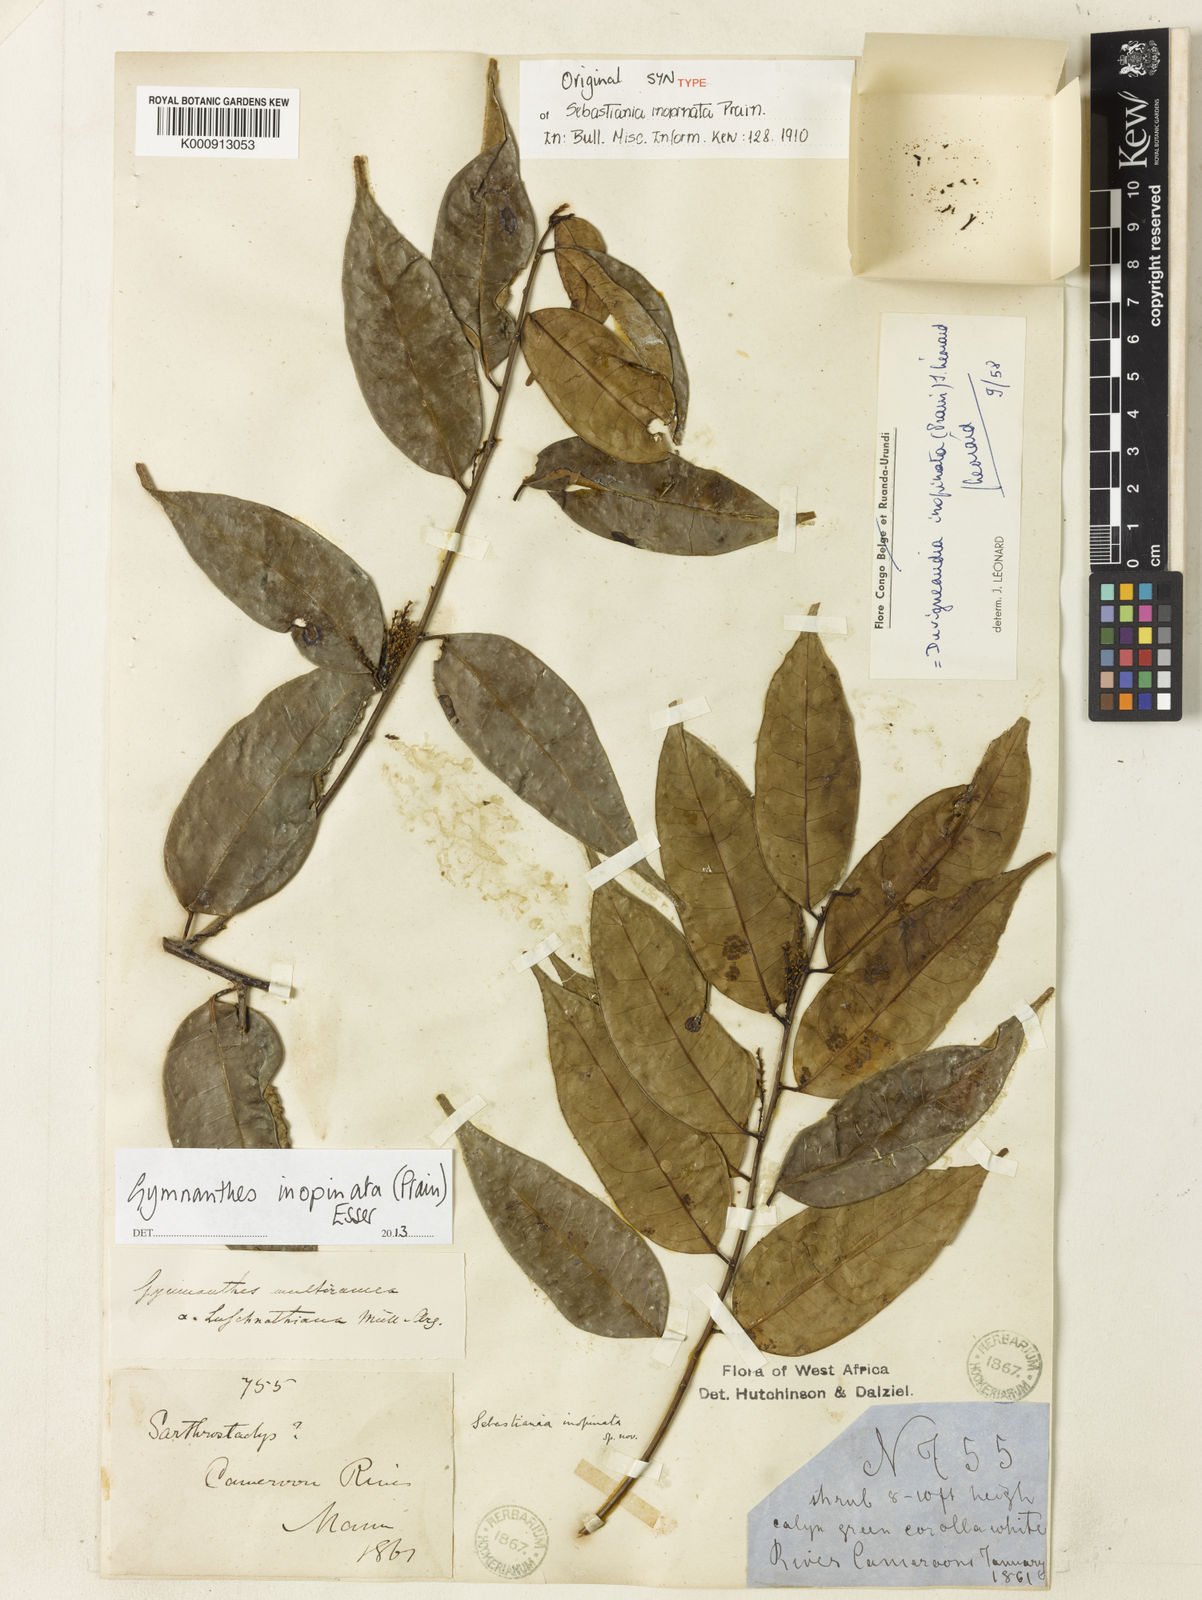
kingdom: Plantae
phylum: Tracheophyta
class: Magnoliopsida
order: Malpighiales
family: Euphorbiaceae
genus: Gymnanthes
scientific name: Gymnanthes inopinata
